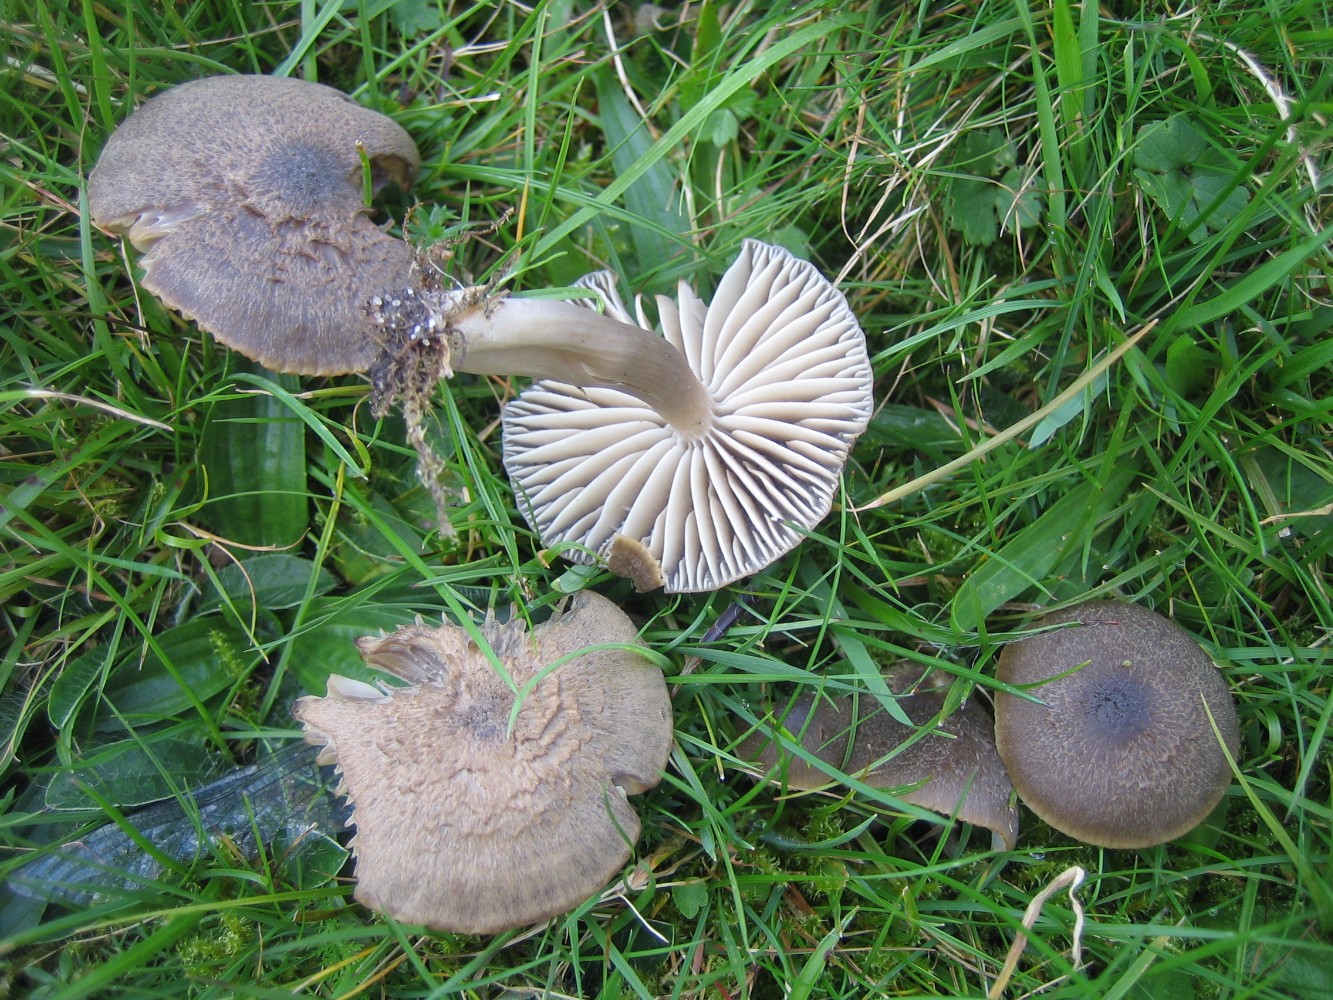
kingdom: Fungi
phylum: Basidiomycota
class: Agaricomycetes
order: Agaricales
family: Hygrophoraceae
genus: Neohygrocybe
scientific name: Neohygrocybe nitrata
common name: stinkende vokshat
